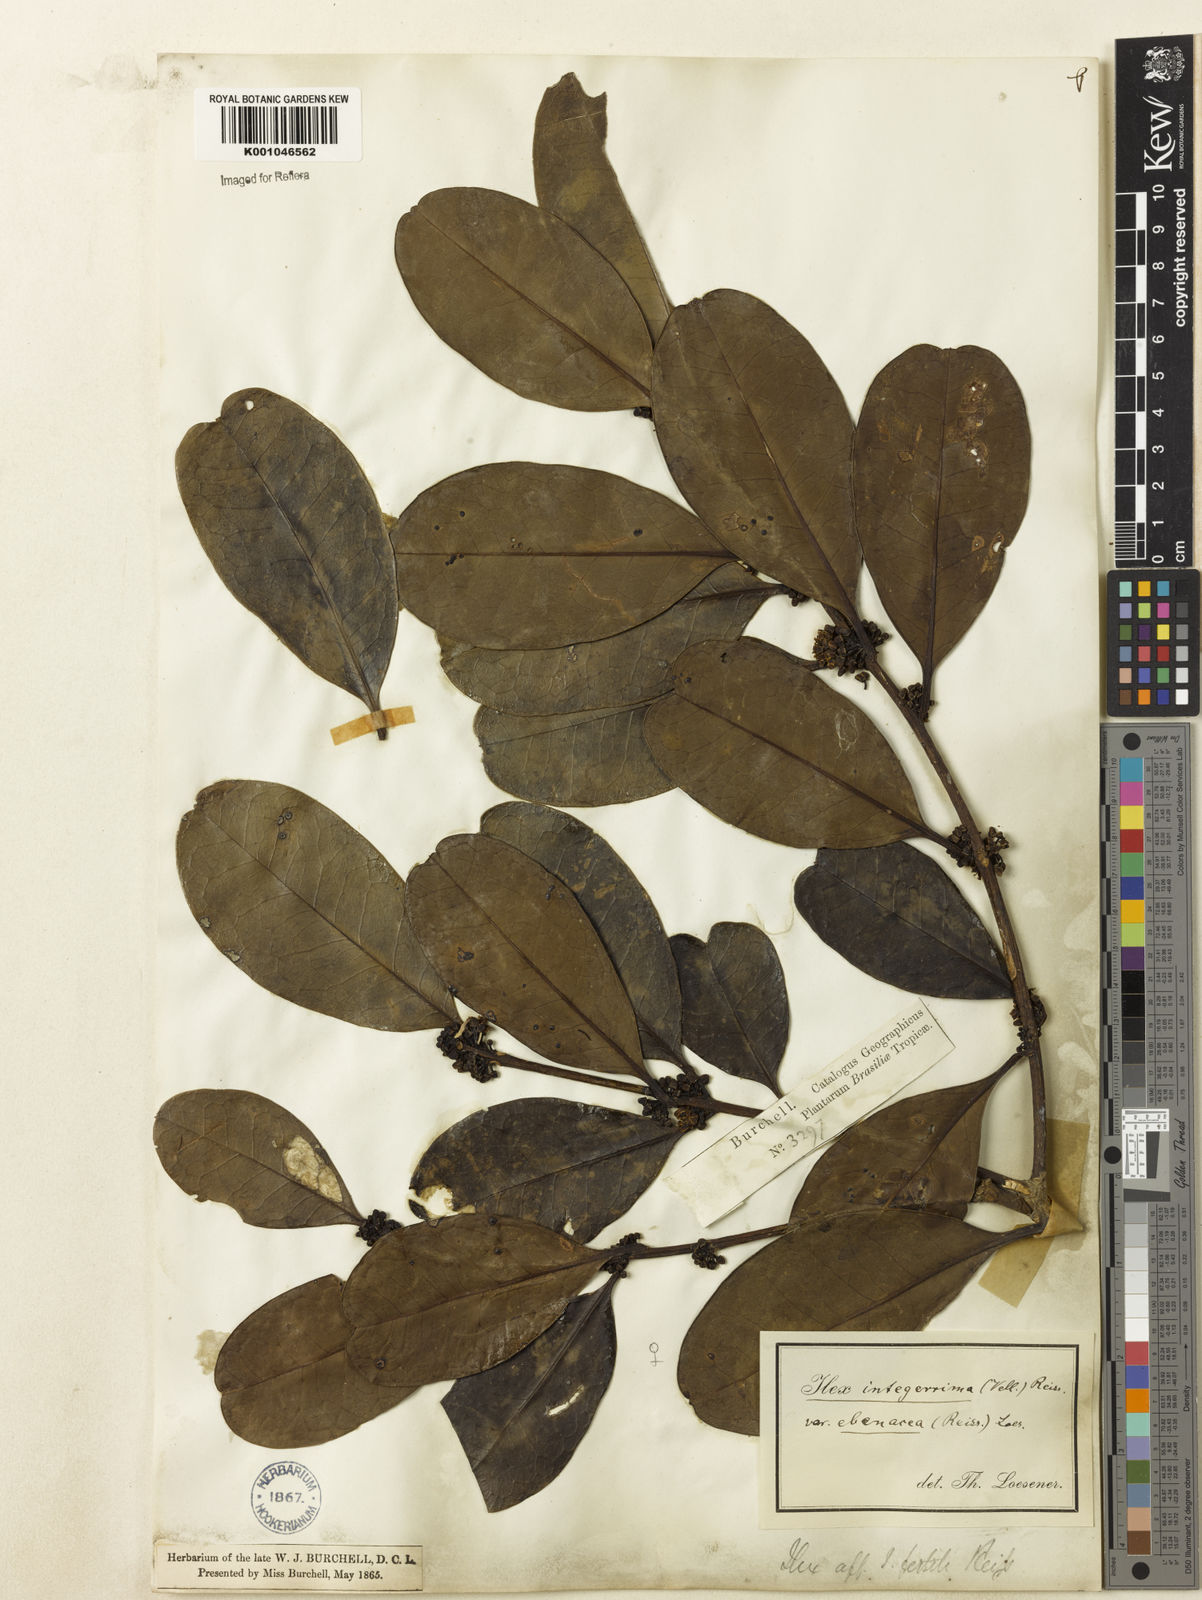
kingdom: Plantae
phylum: Tracheophyta
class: Magnoliopsida
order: Aquifoliales
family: Aquifoliaceae
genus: Ilex
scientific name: Ilex integerrima
